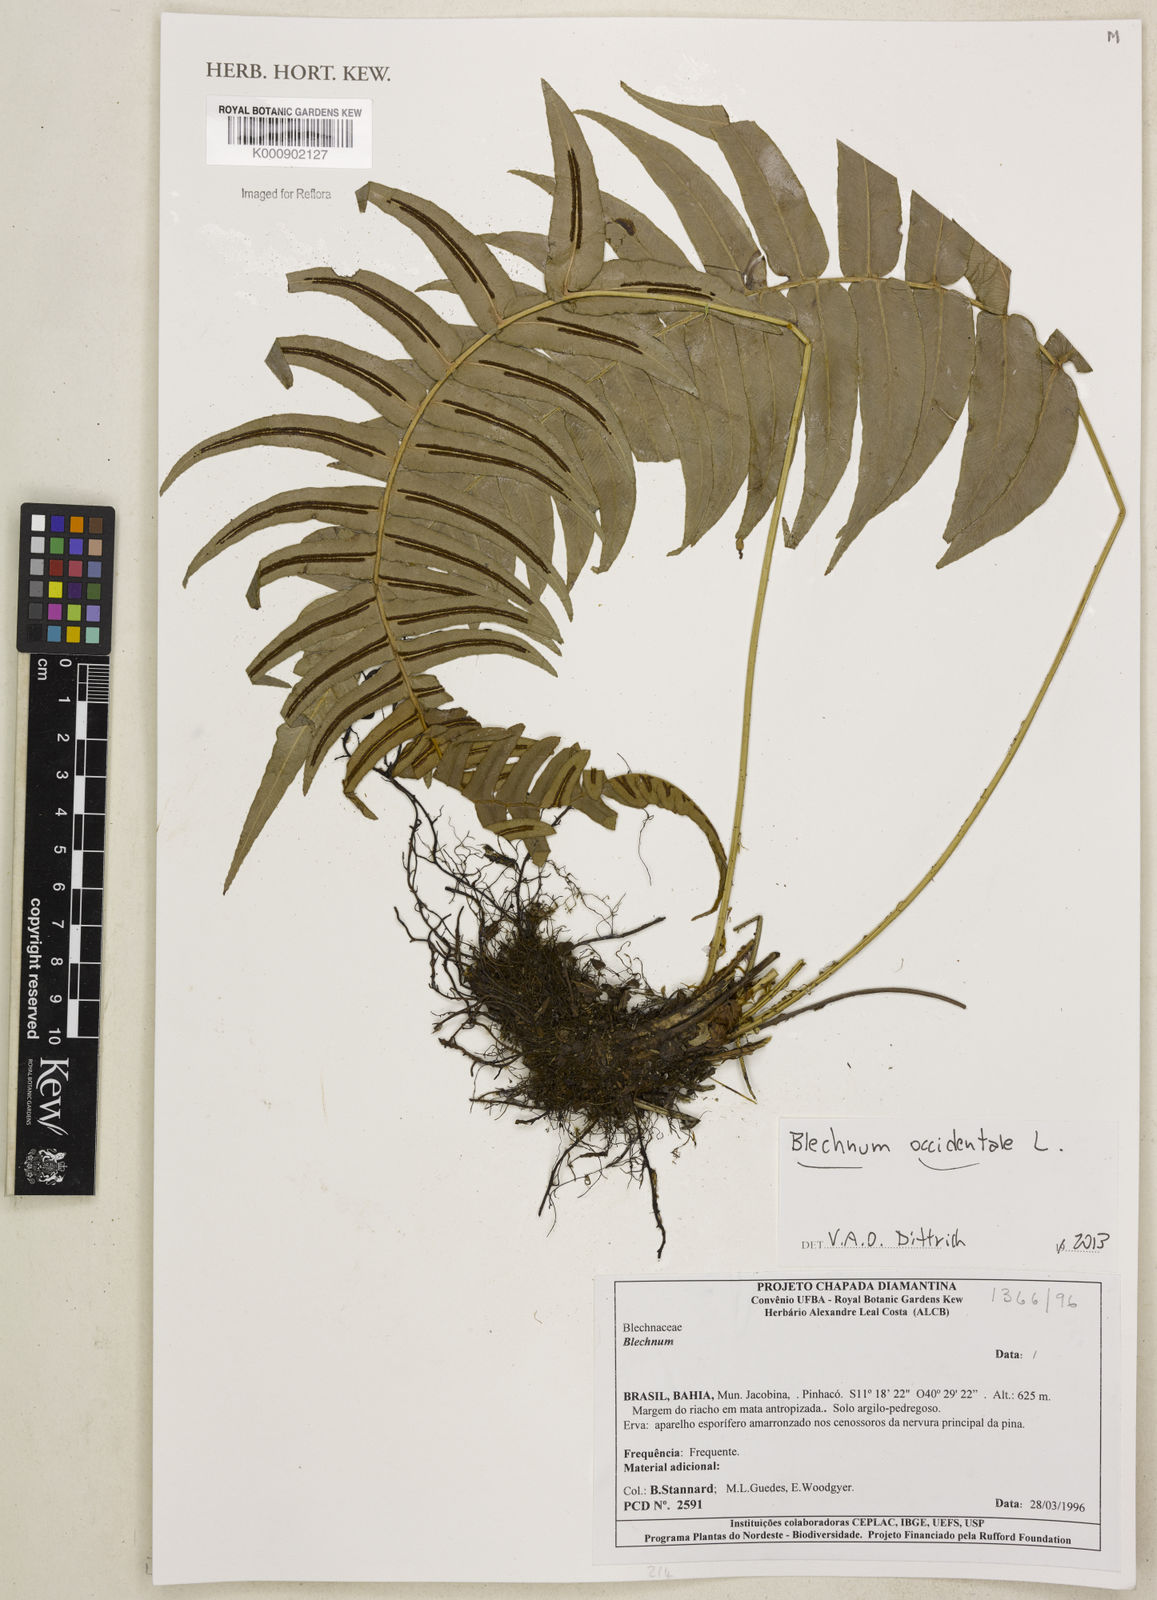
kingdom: Plantae
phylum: Tracheophyta
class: Polypodiopsida
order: Polypodiales
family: Blechnaceae
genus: Blechnum
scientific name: Blechnum occidentale
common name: Hammock fern
